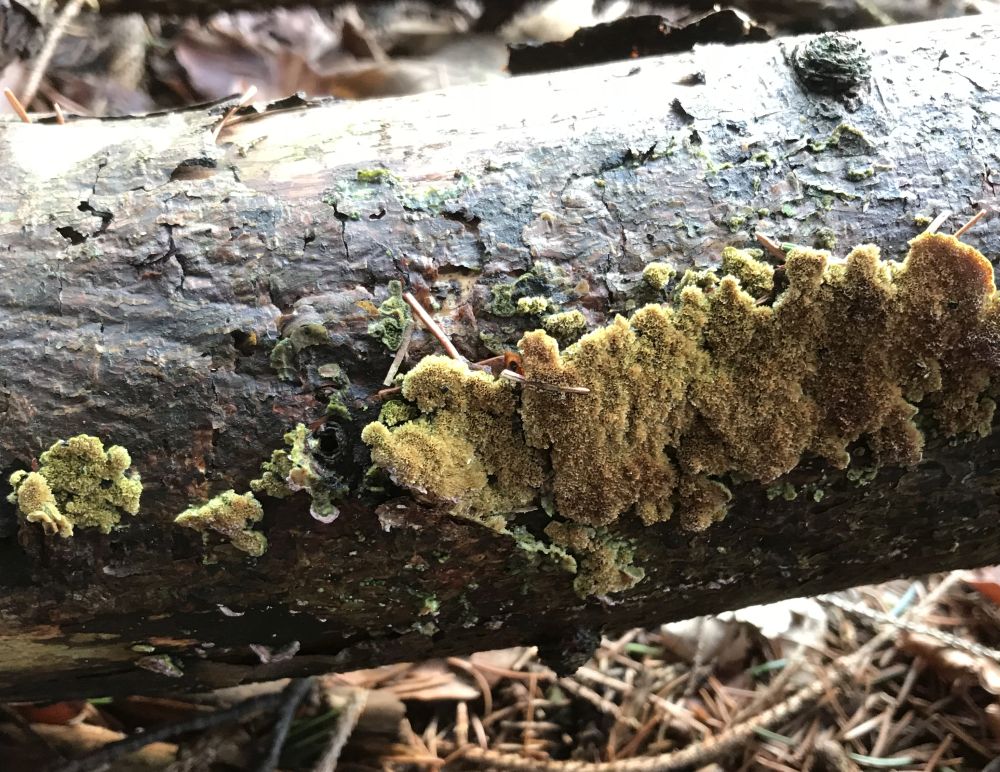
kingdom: Fungi
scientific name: Fungi
